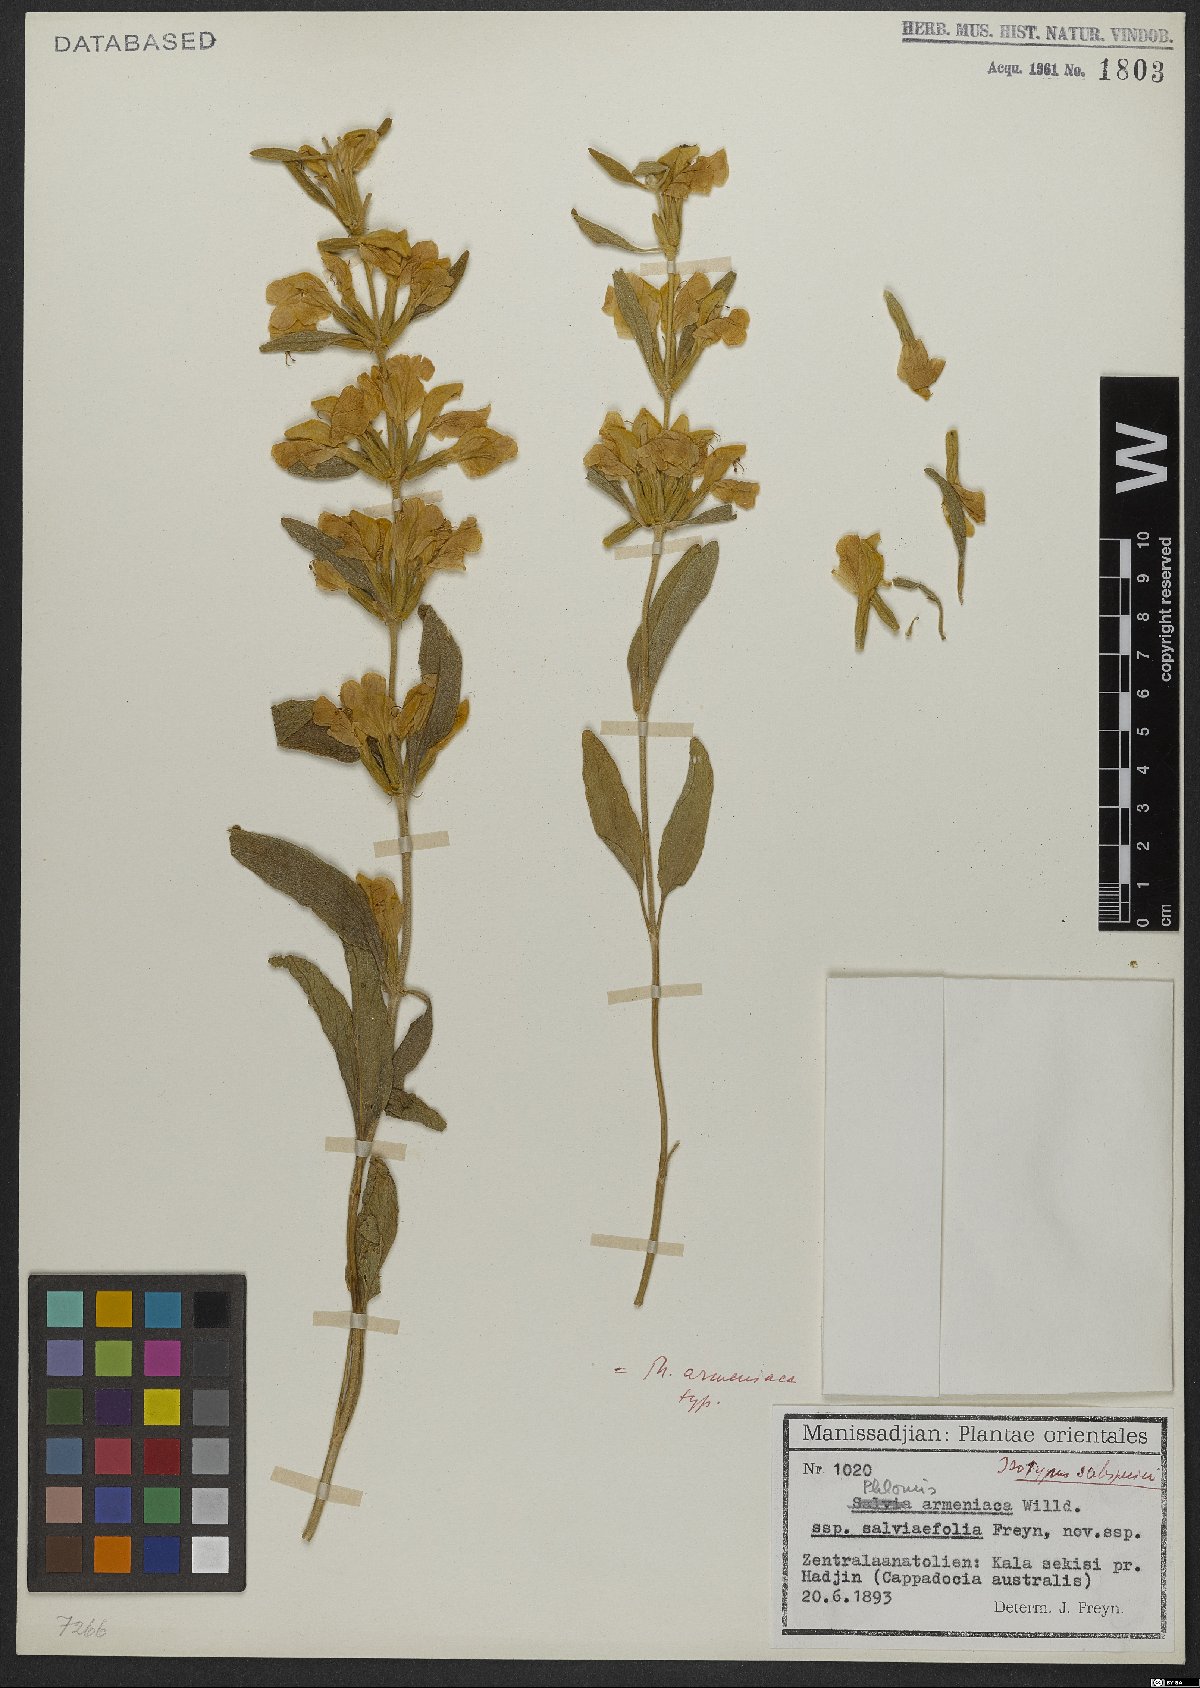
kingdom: Plantae
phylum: Tracheophyta
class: Magnoliopsida
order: Lamiales
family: Lamiaceae
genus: Phlomis
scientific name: Phlomis armeniaca
